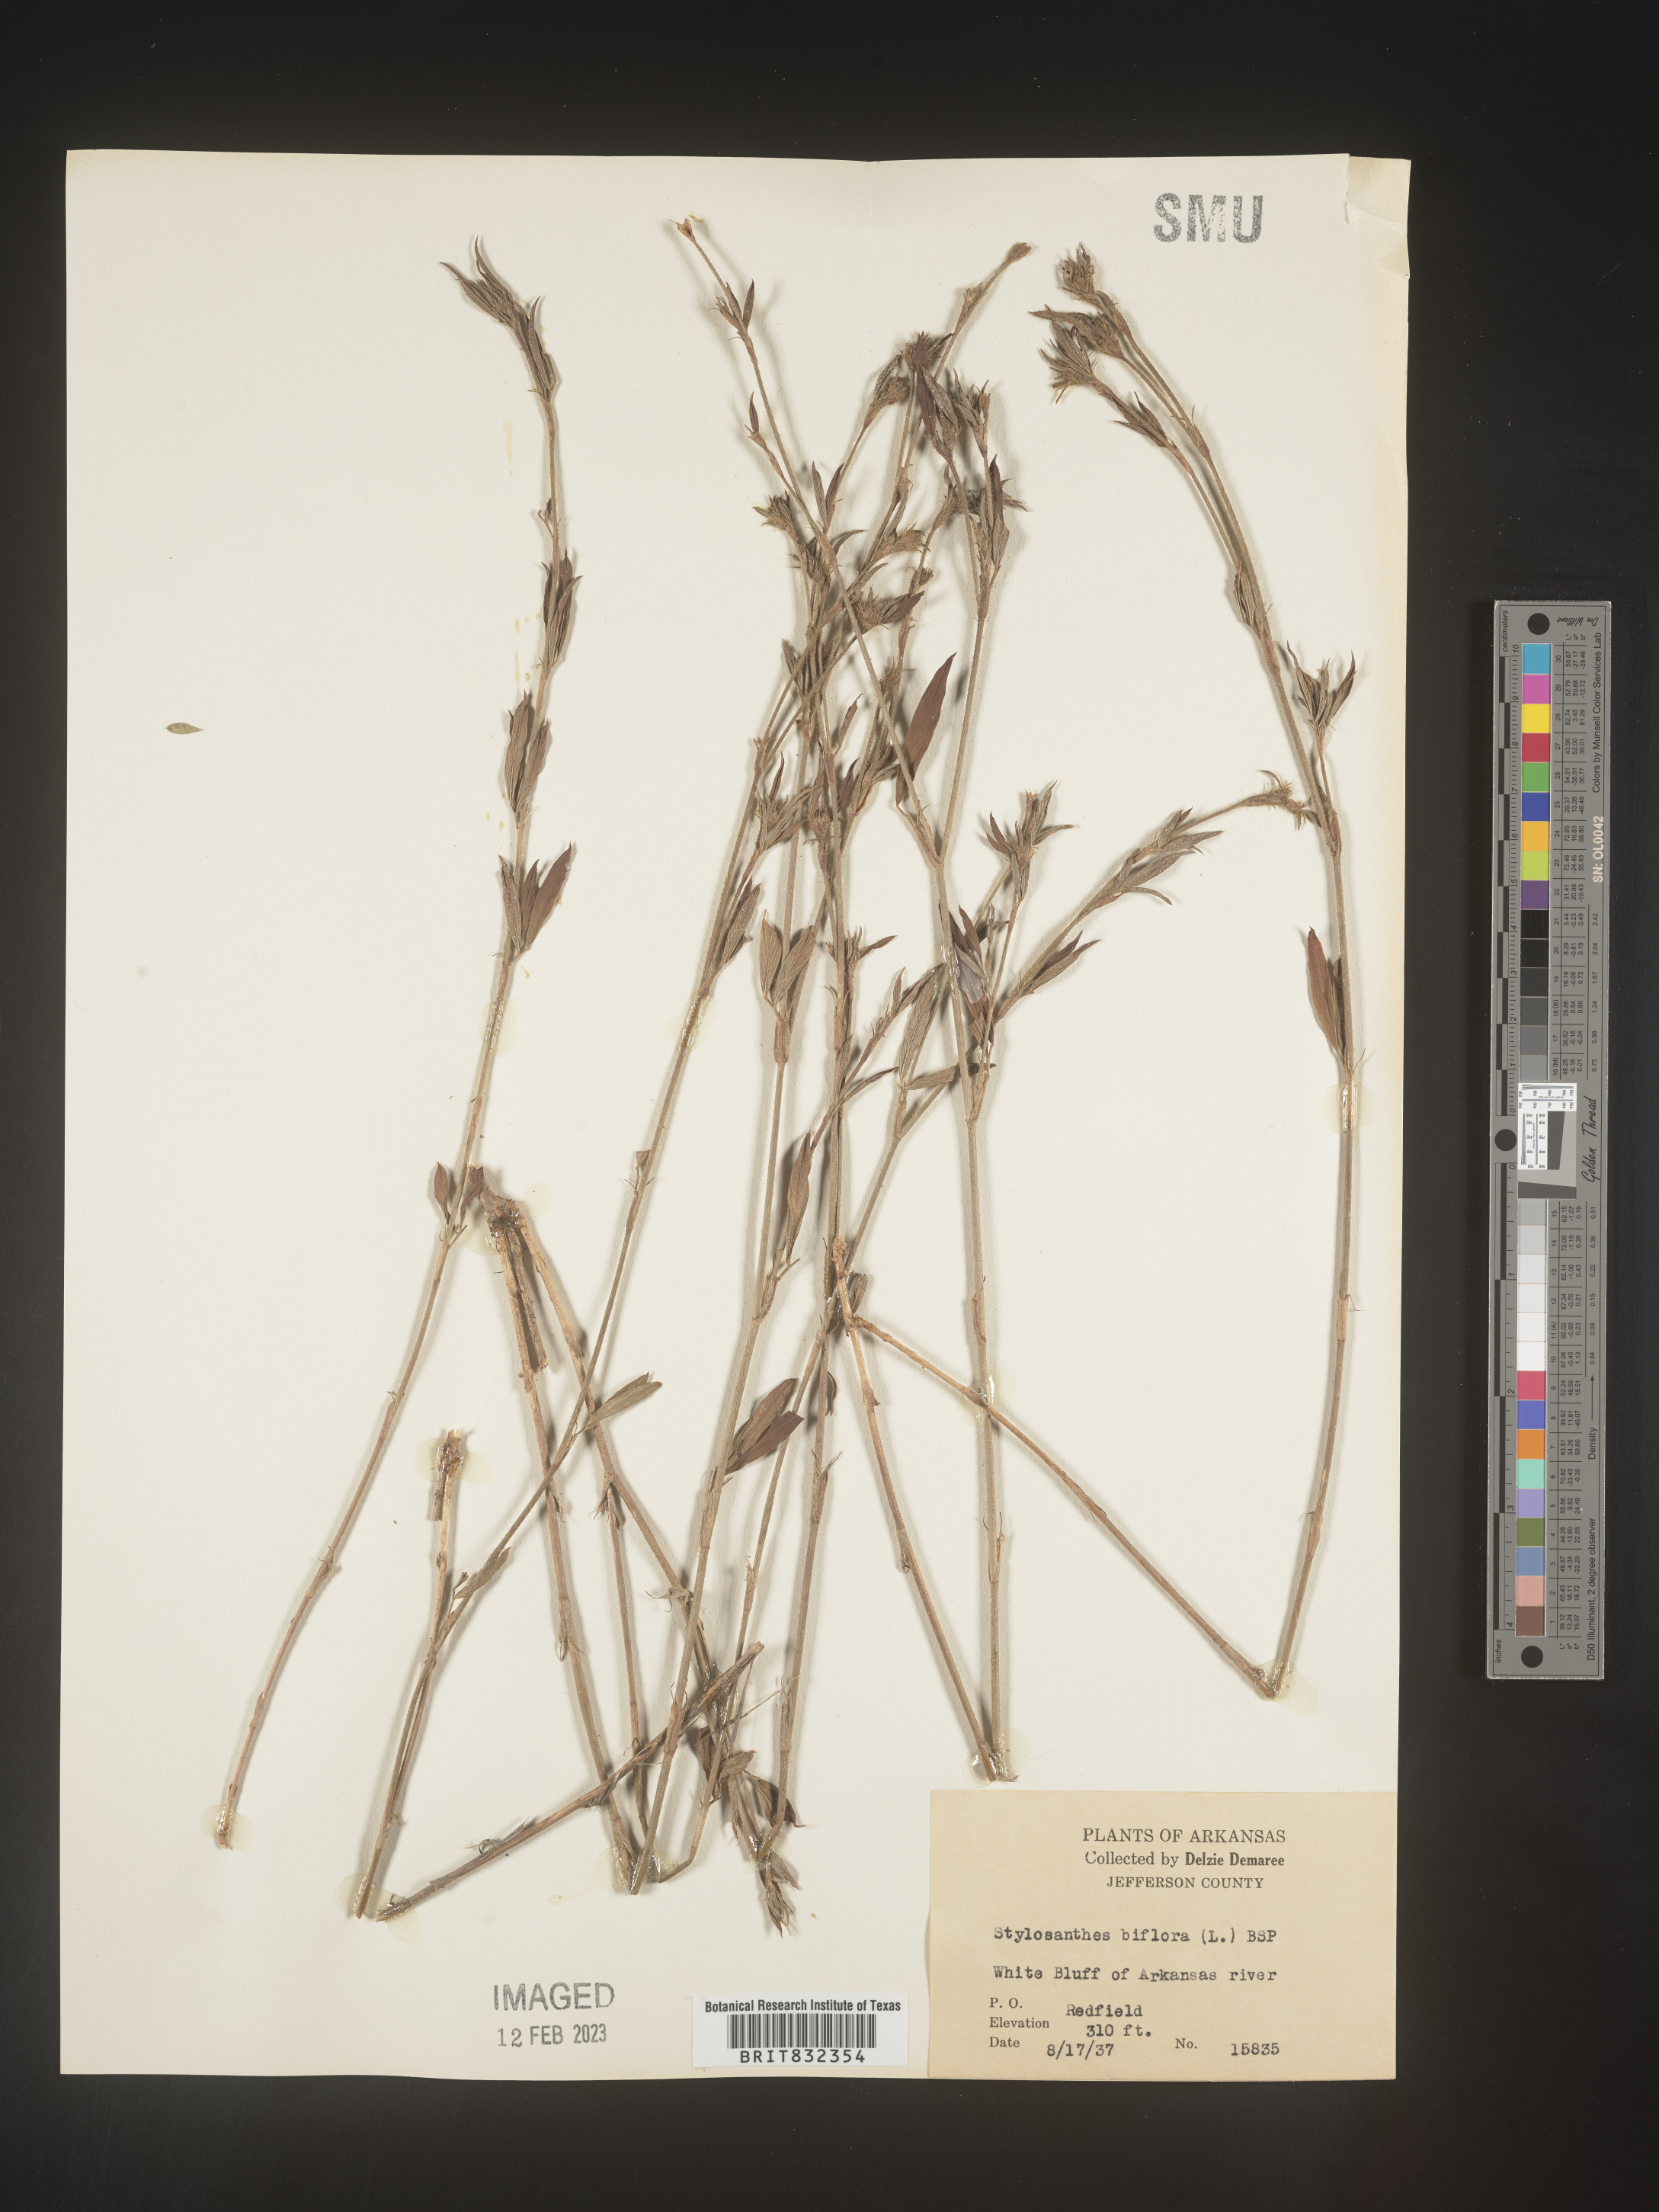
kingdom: Plantae
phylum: Tracheophyta
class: Magnoliopsida
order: Fabales
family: Fabaceae
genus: Stylosanthes
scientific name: Stylosanthes biflora
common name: Two-flower pencil-flower
